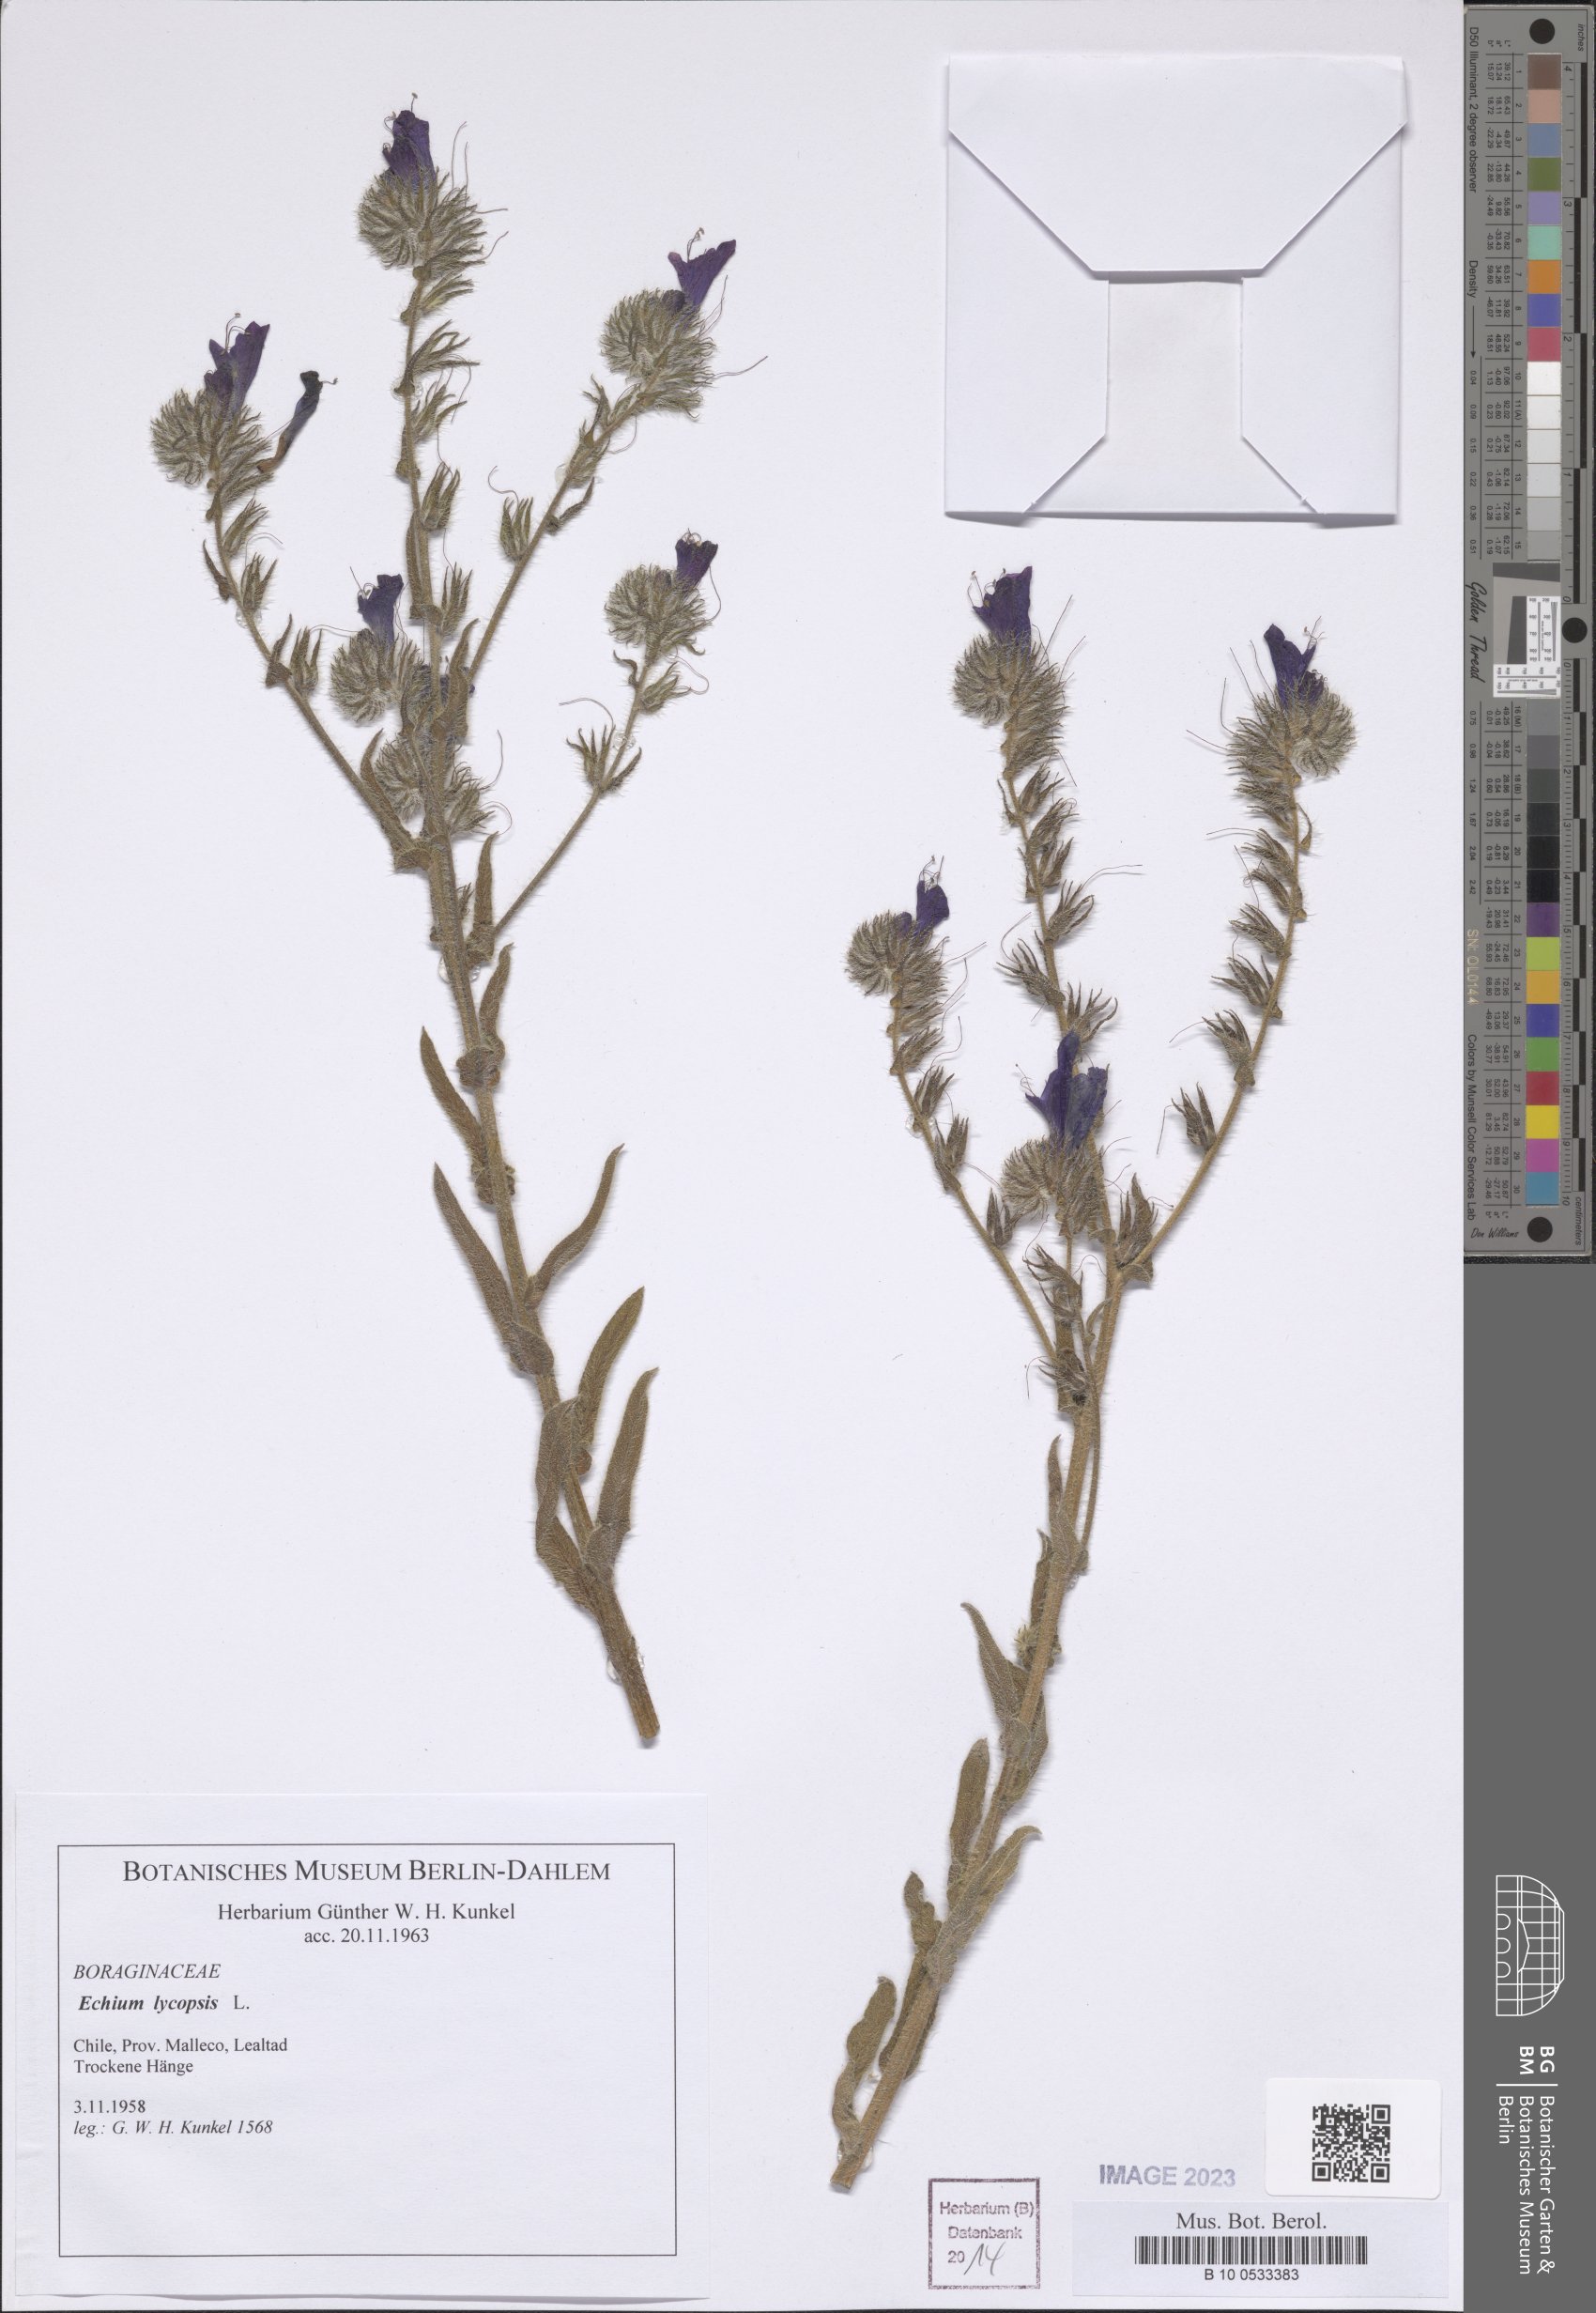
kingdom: Plantae
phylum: Tracheophyta
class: Magnoliopsida
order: Boraginales
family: Boraginaceae
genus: Echium
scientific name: Echium plantagineum
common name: Purple viper's-bugloss
